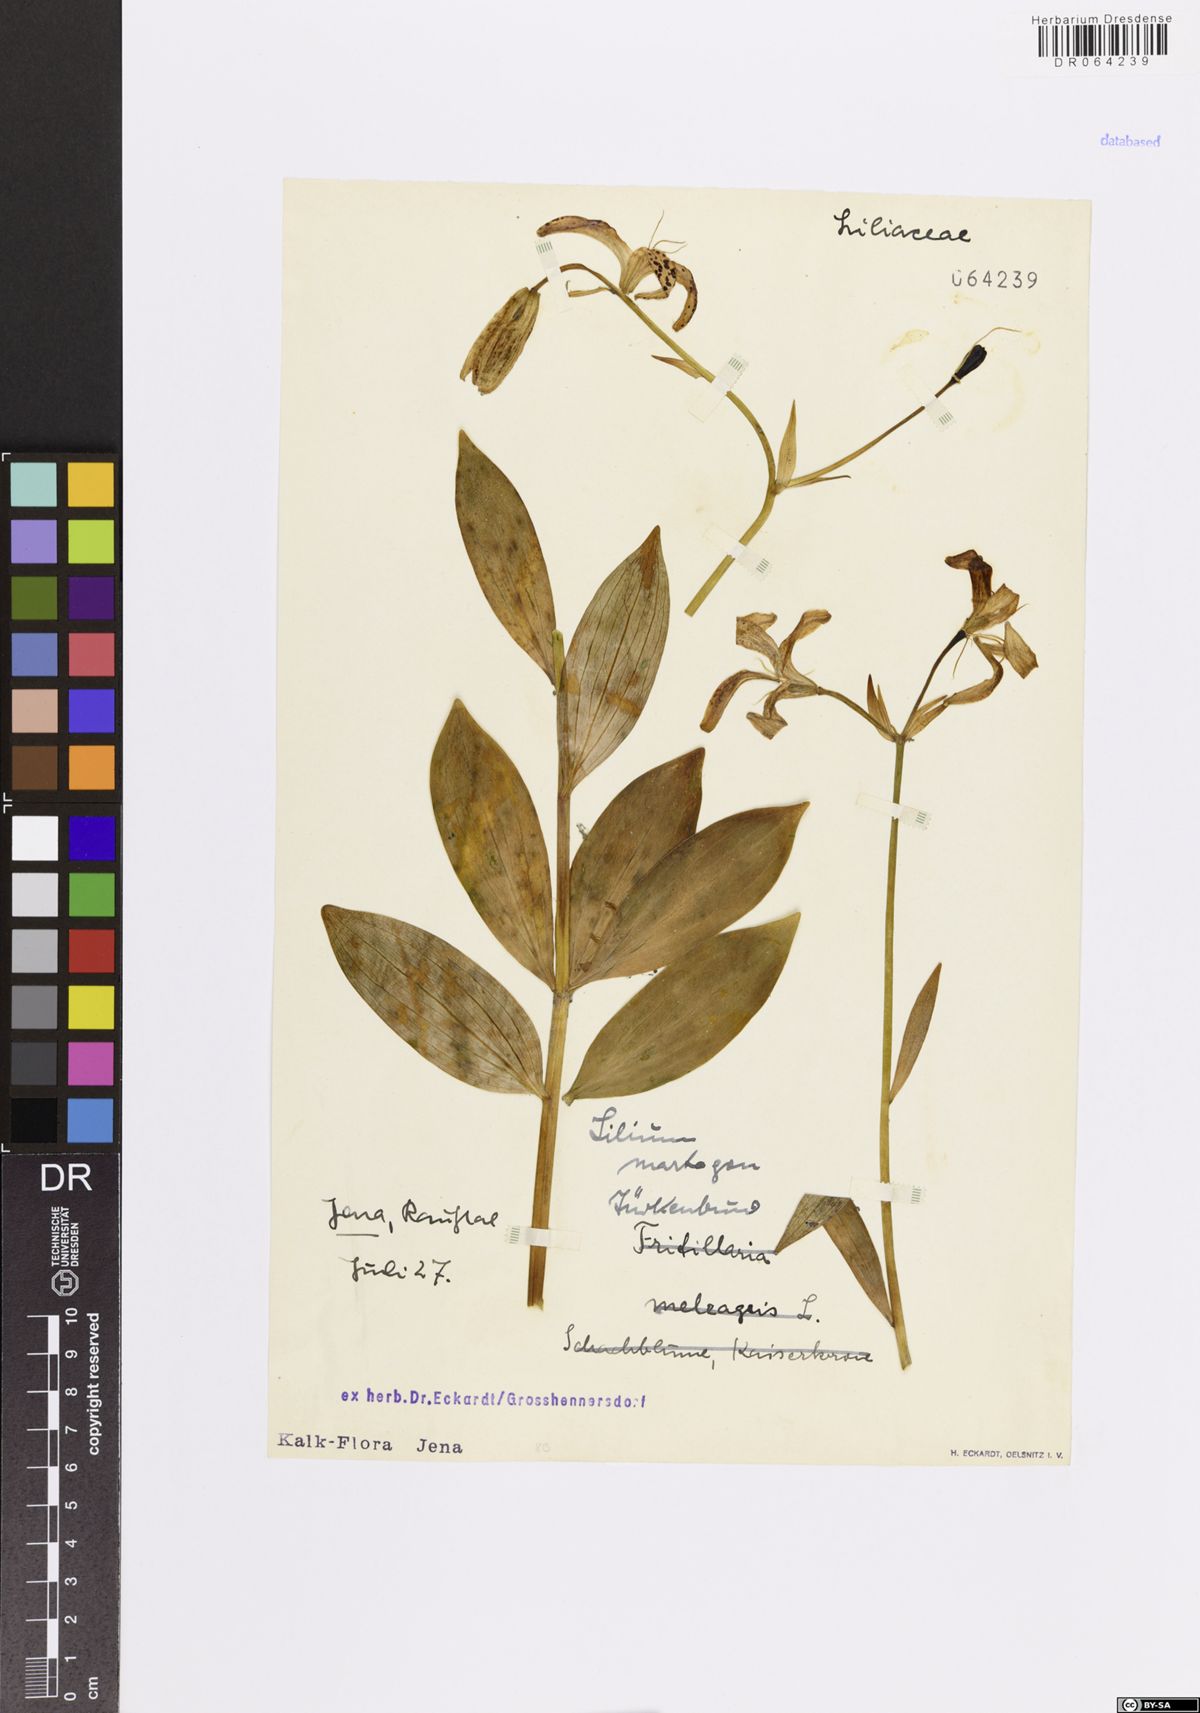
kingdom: Plantae
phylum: Tracheophyta
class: Liliopsida
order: Liliales
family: Liliaceae
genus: Lilium
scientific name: Lilium martagon
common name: Martagon lily
